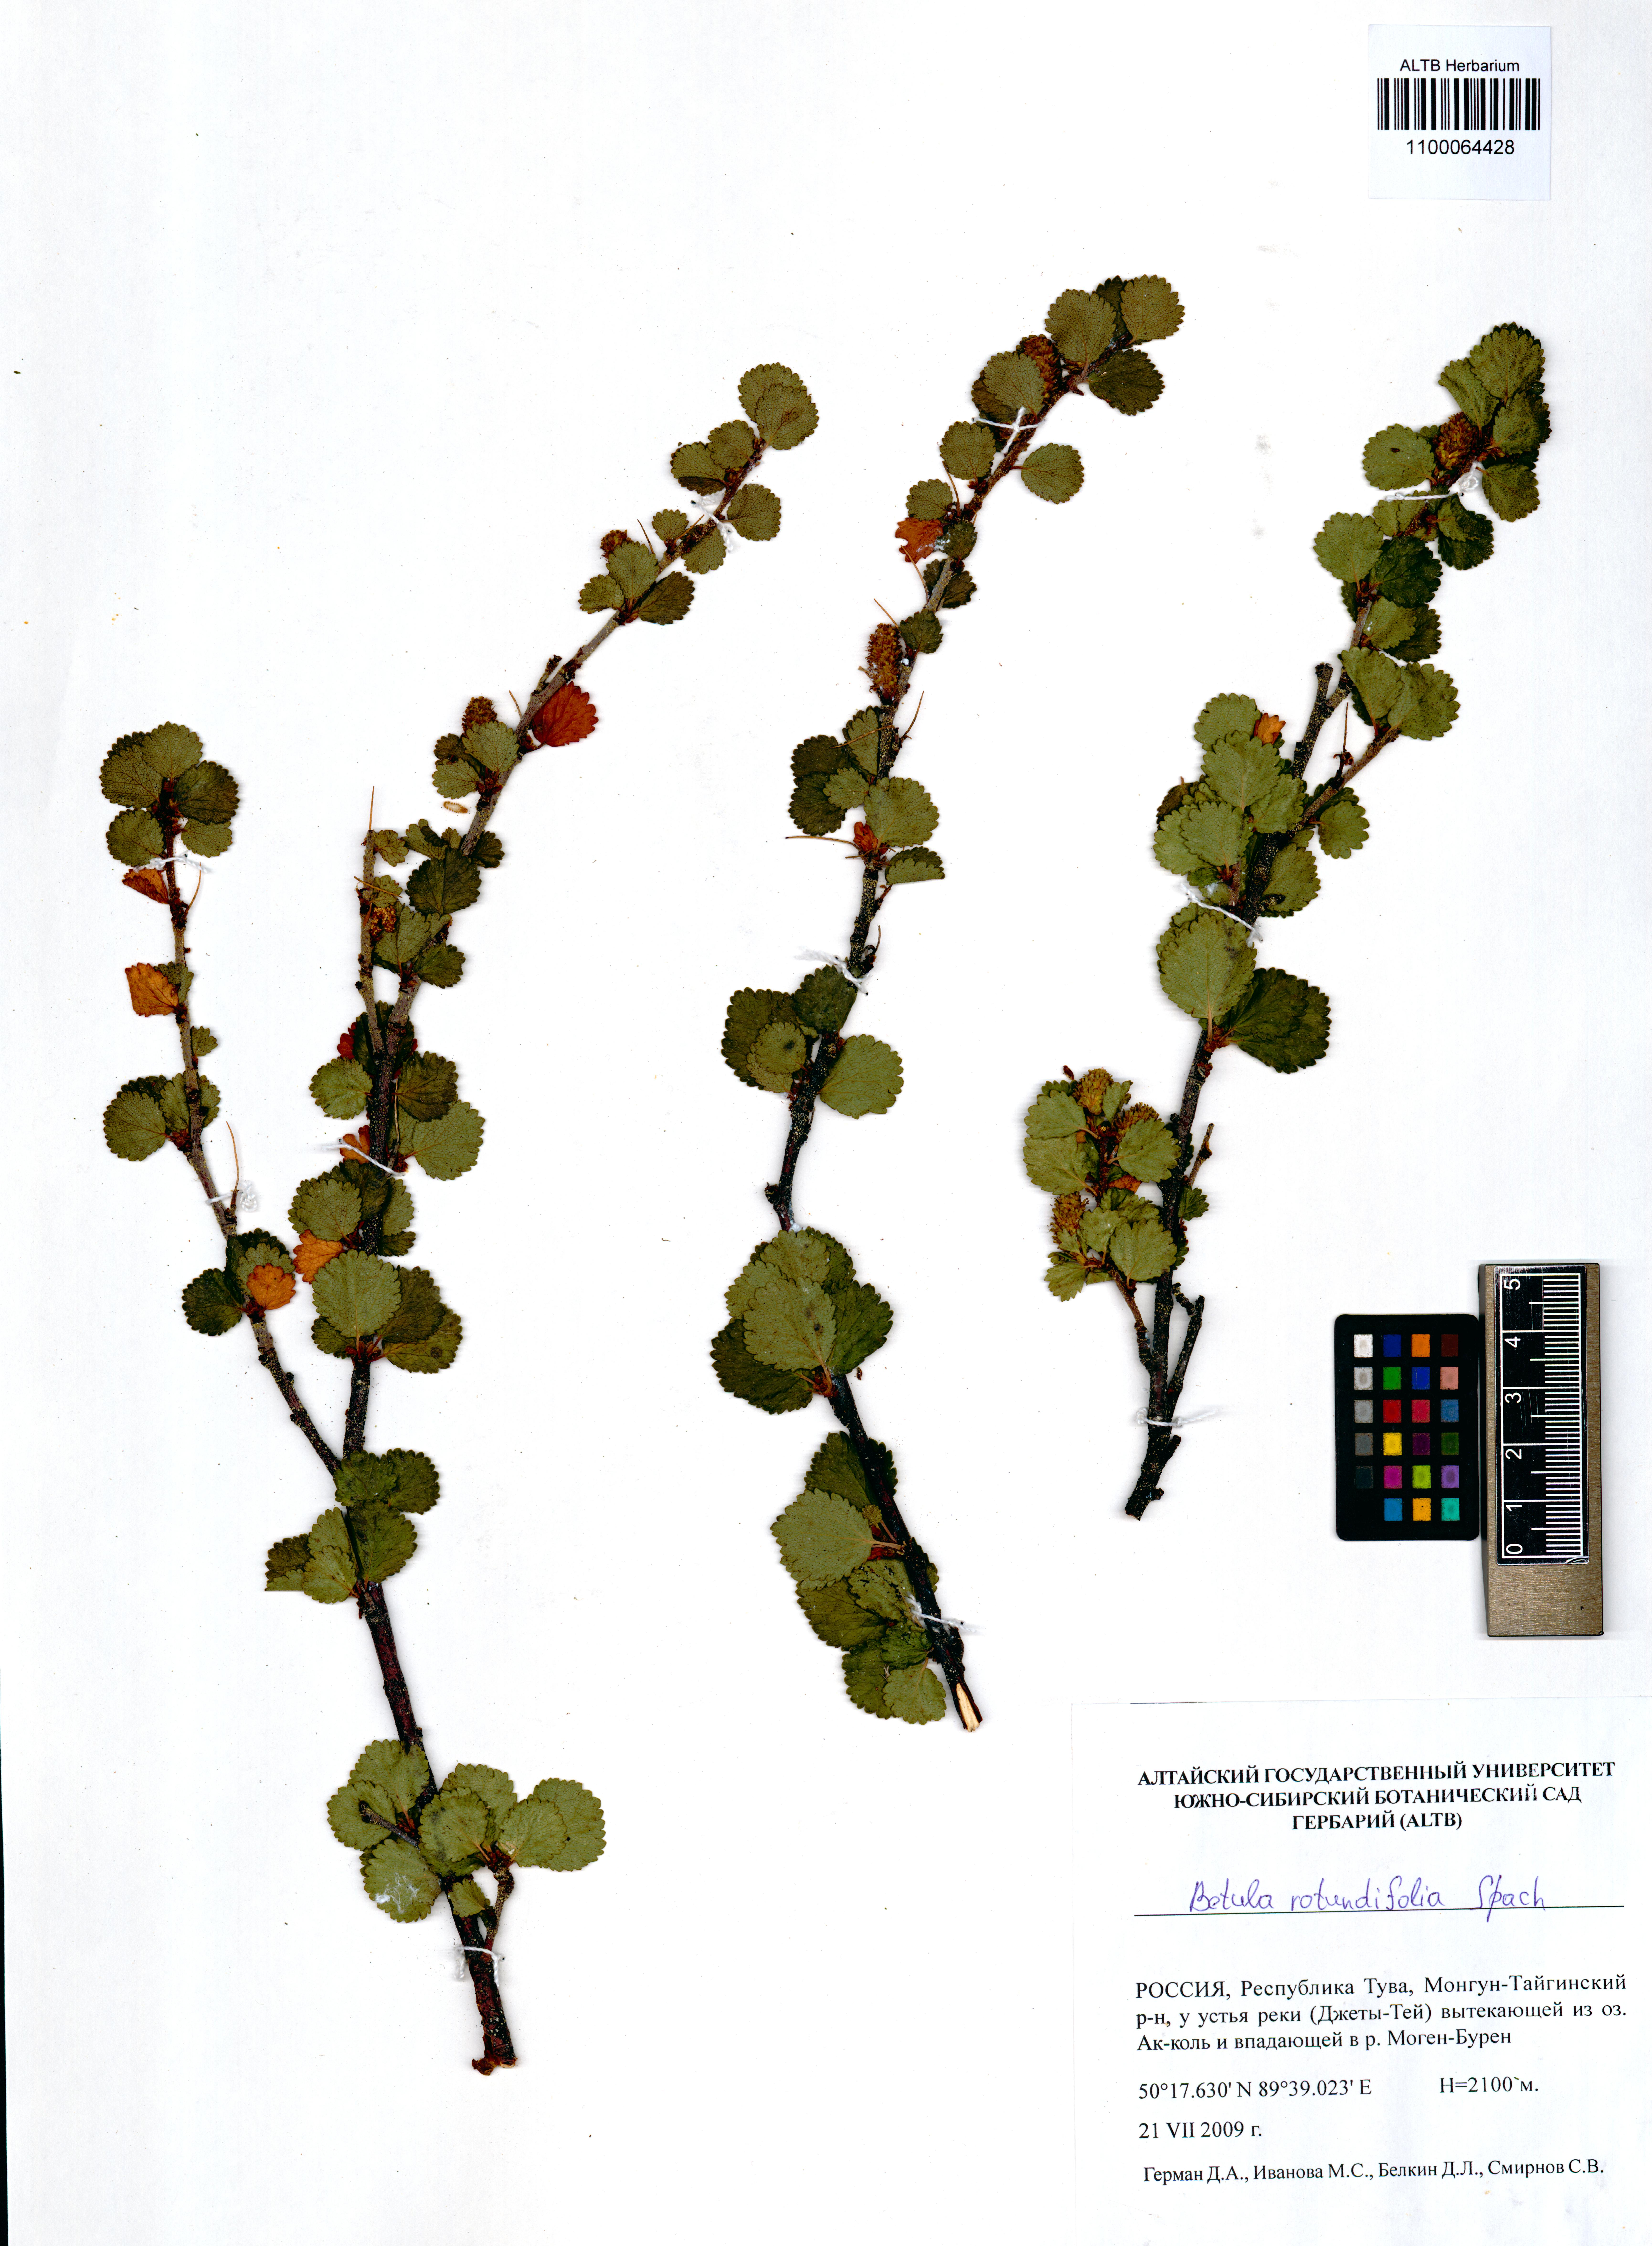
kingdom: Plantae
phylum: Tracheophyta
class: Magnoliopsida
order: Fagales
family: Betulaceae
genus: Betula
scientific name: Betula glandulosa
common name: Dwarf birch
